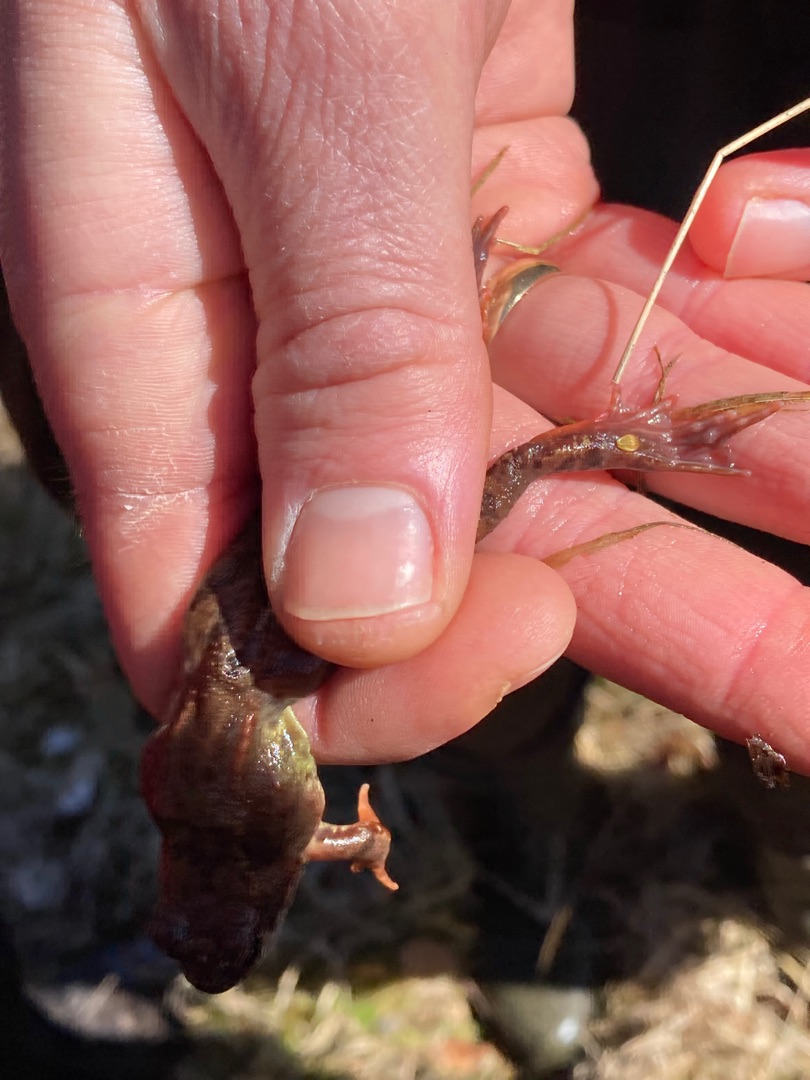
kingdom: Animalia
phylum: Chordata
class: Amphibia
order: Anura
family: Ranidae
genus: Rana
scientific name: Rana temporaria
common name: Butsnudet frø
